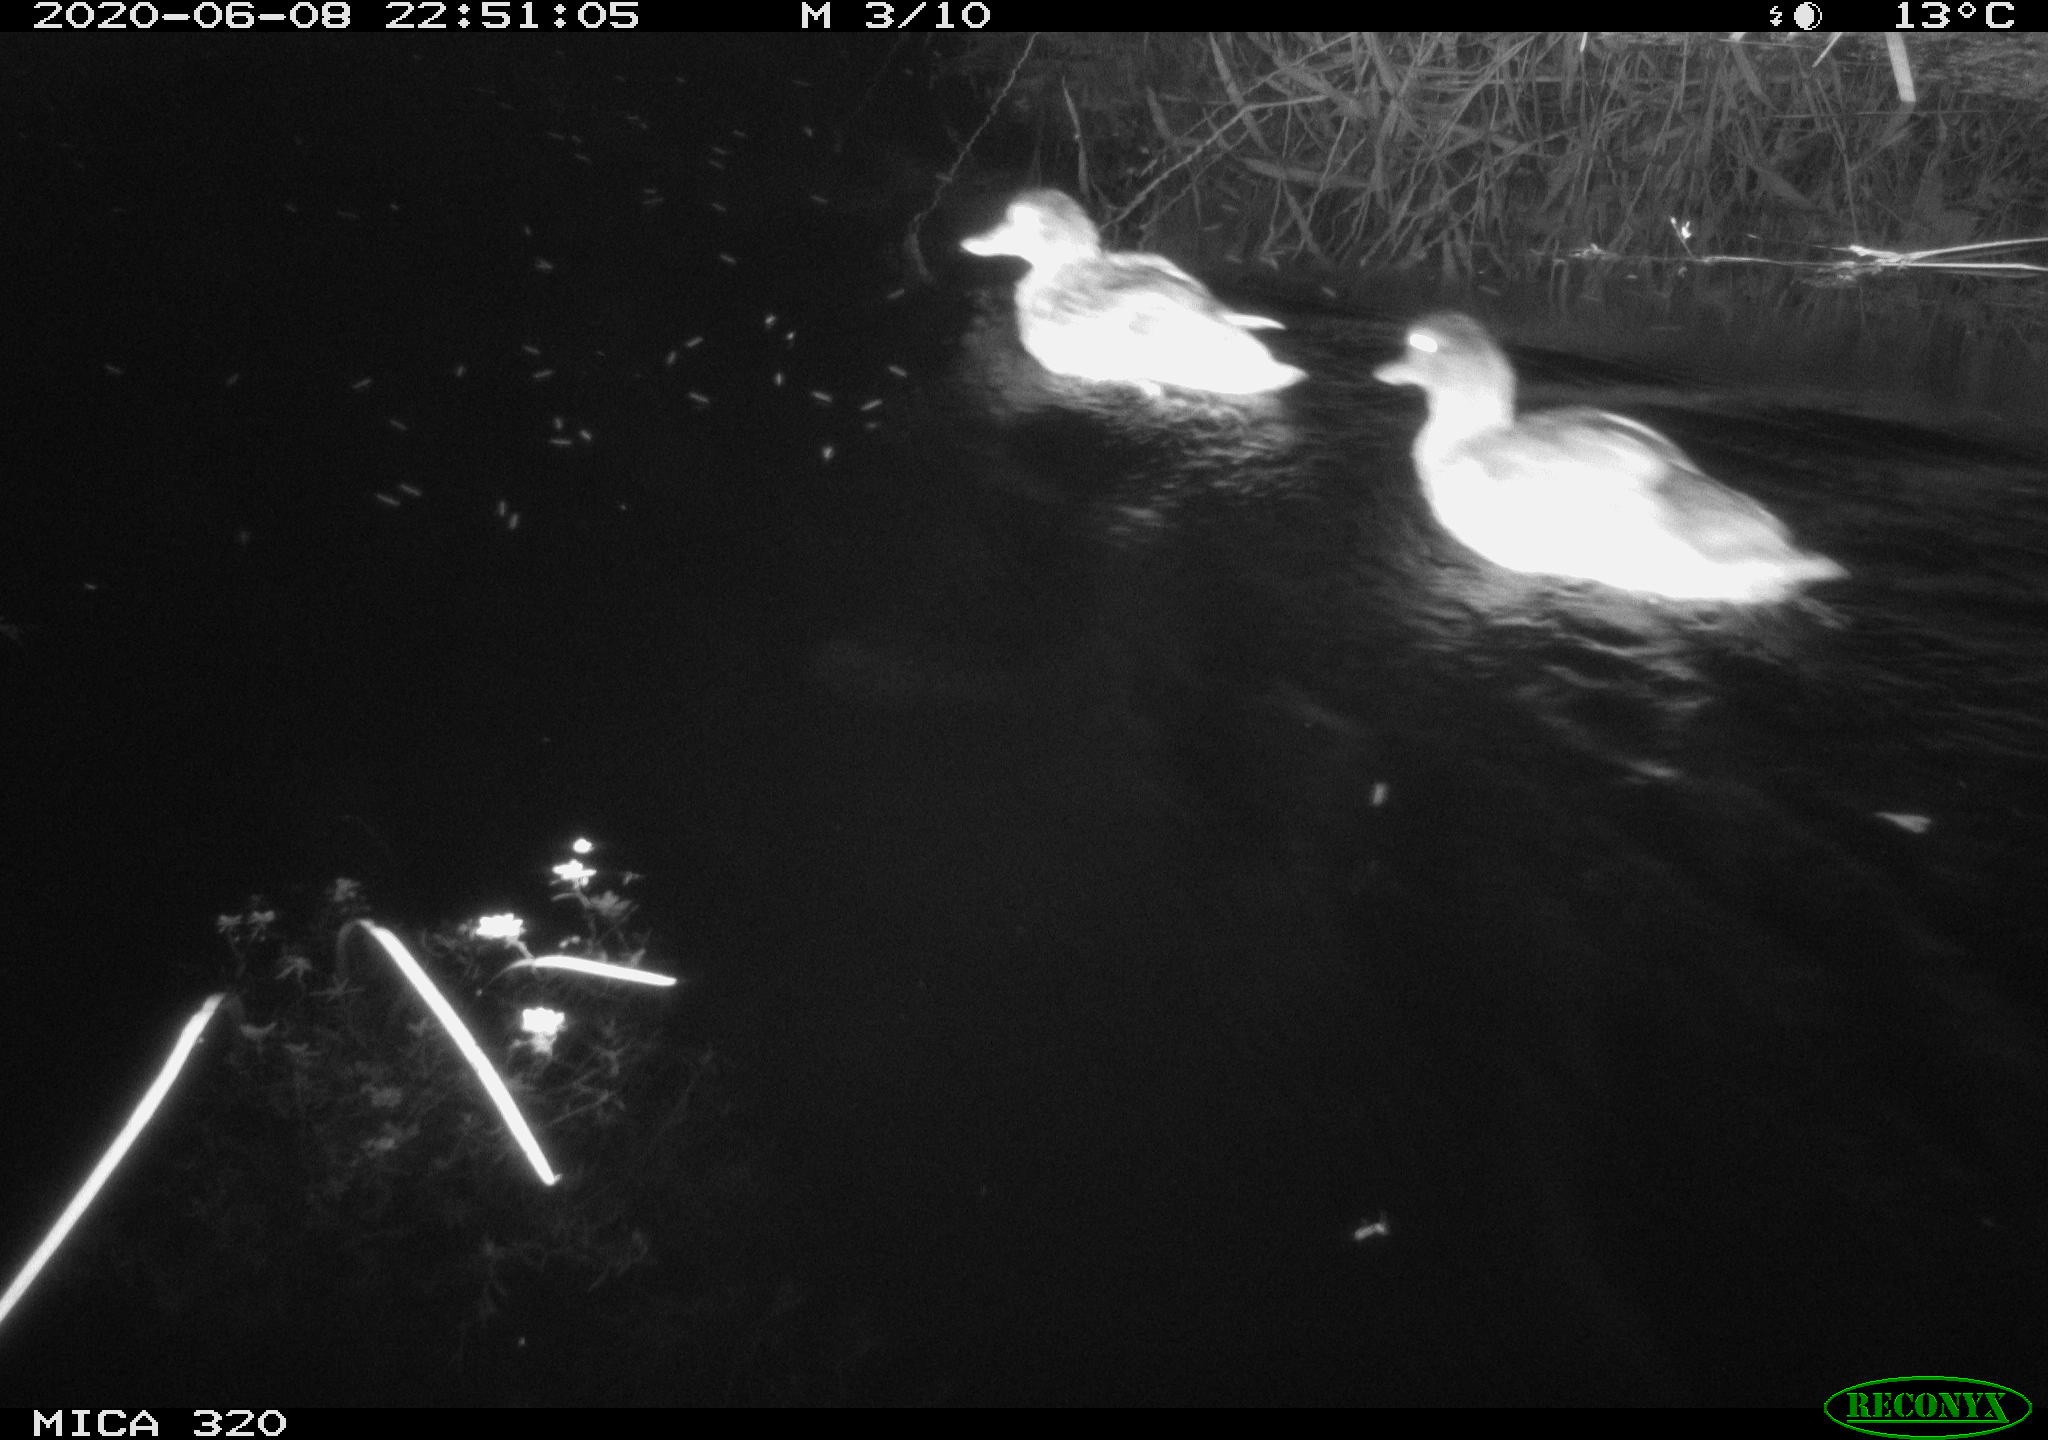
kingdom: Animalia
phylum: Chordata
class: Aves
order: Anseriformes
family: Anatidae
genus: Anas
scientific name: Anas platyrhynchos
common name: Mallard
